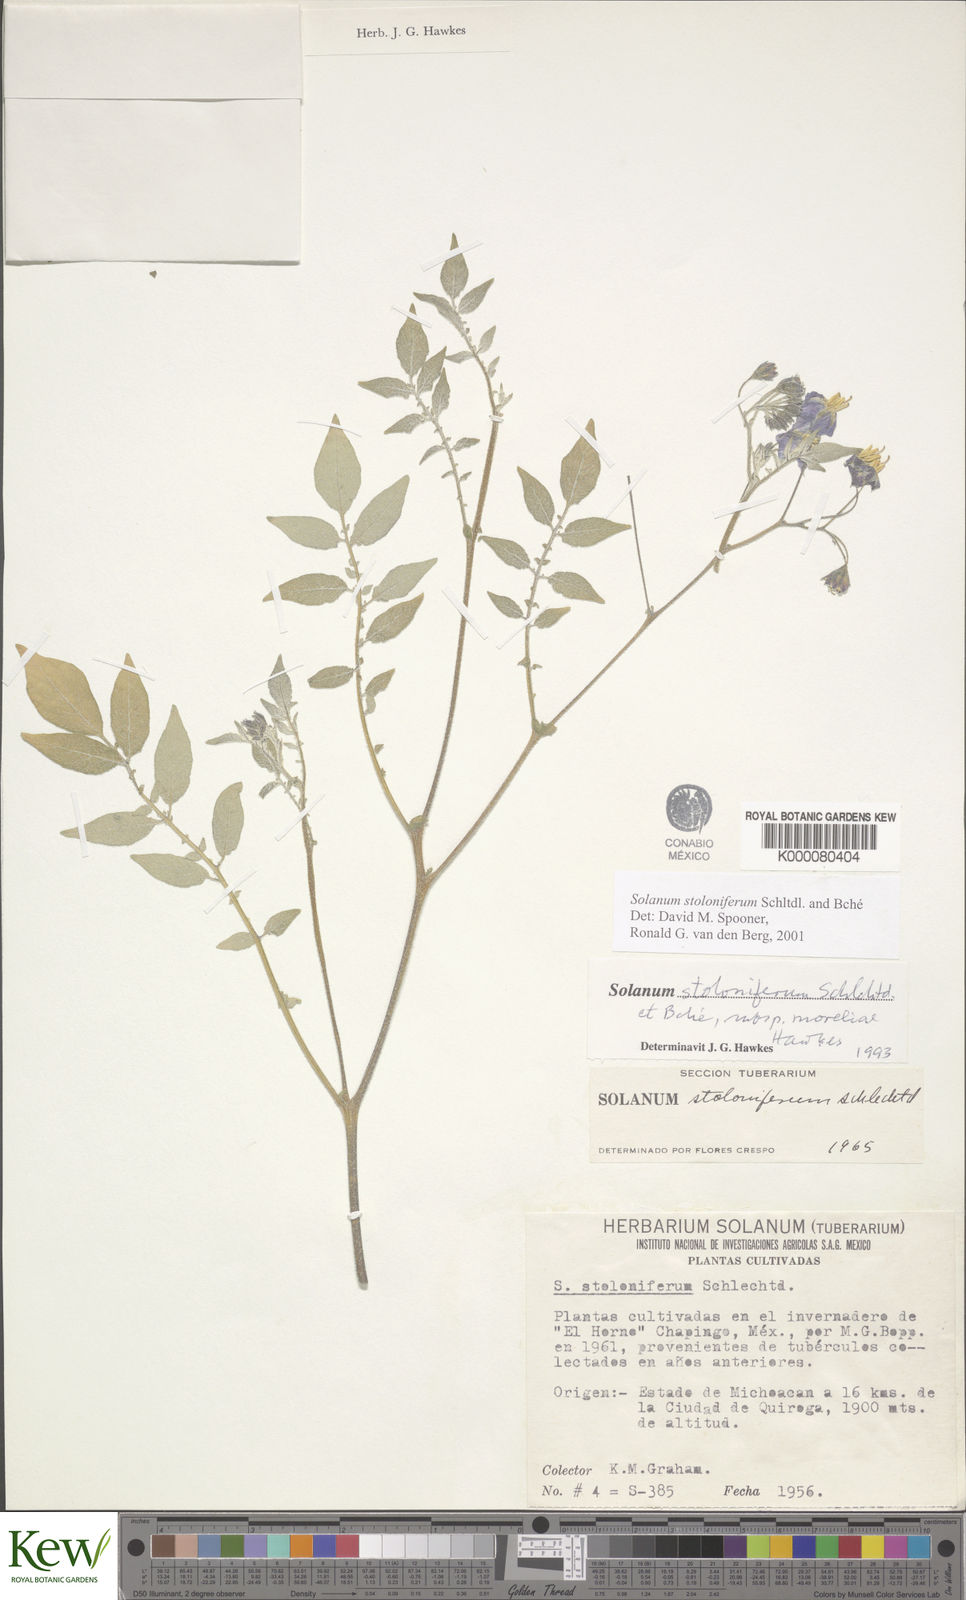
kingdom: Plantae
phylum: Tracheophyta
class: Magnoliopsida
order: Solanales
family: Solanaceae
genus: Solanum
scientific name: Solanum stoloniferum
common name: Fendler's nighshade
